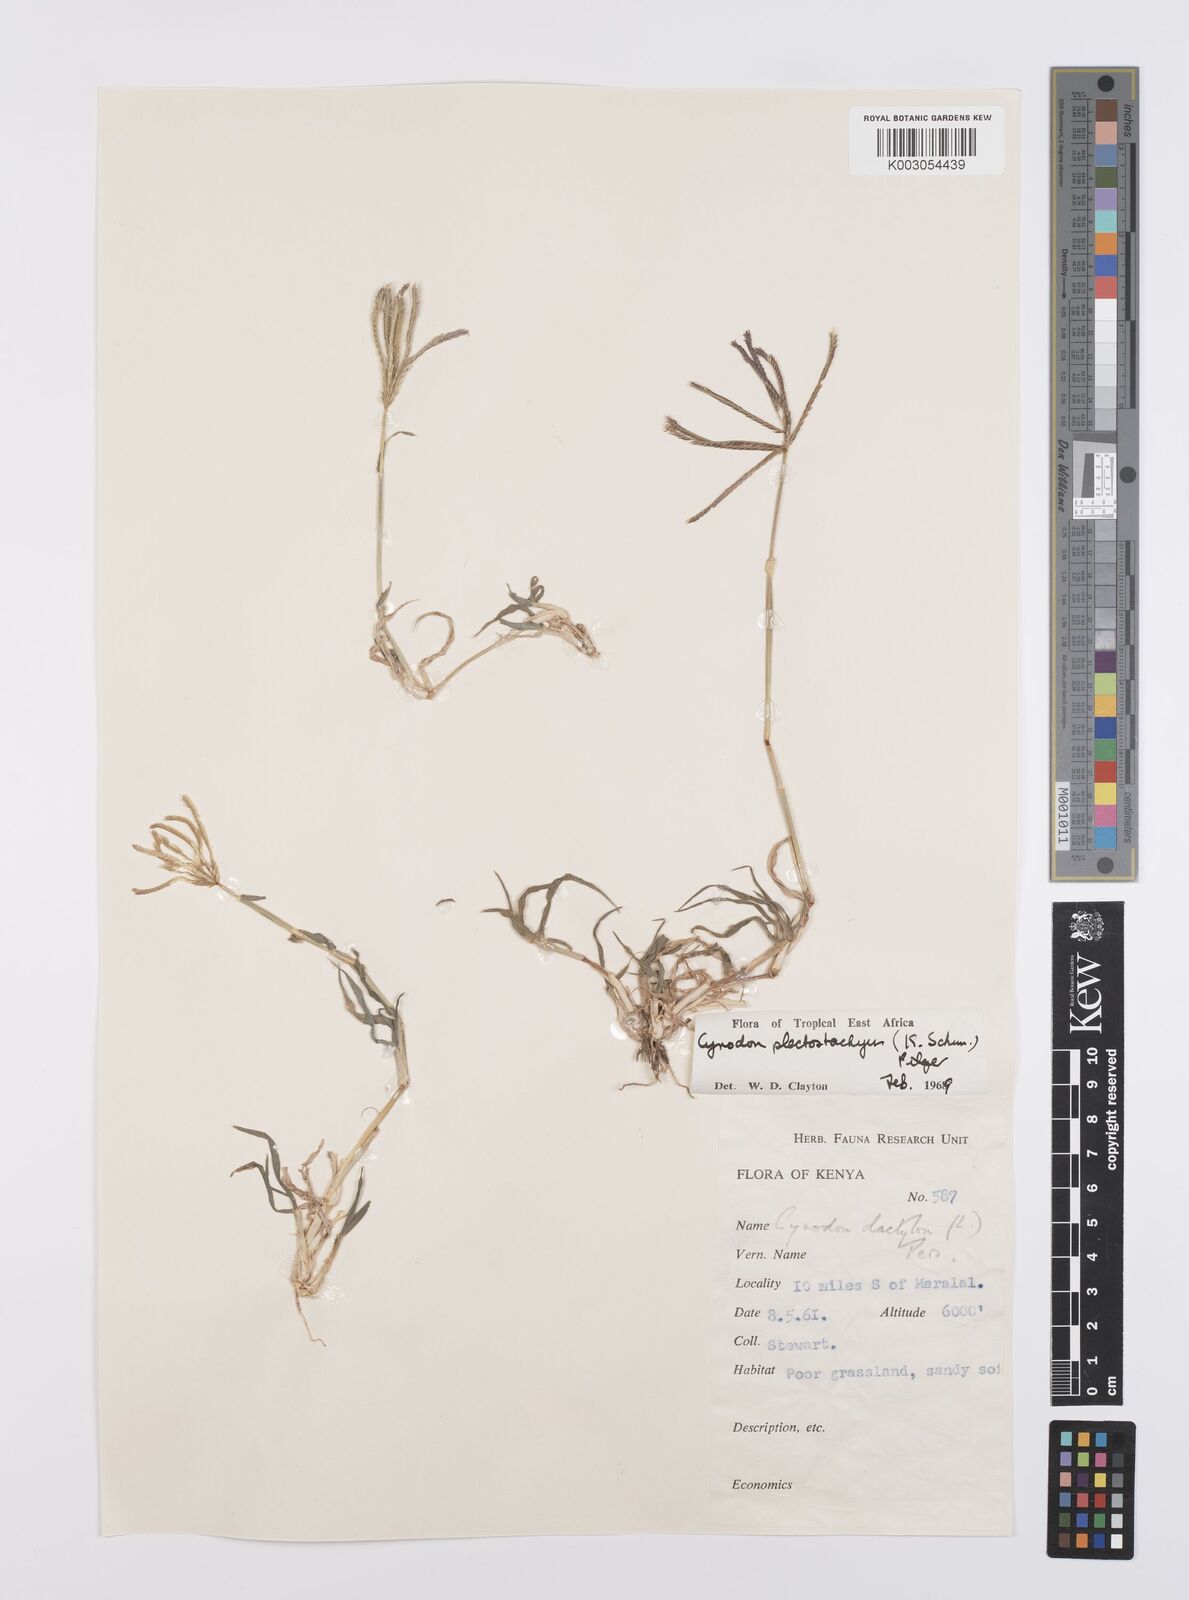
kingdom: Plantae
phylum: Tracheophyta
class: Liliopsida
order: Poales
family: Poaceae
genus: Cynodon
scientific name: Cynodon plectostachyus
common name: Stargrass
